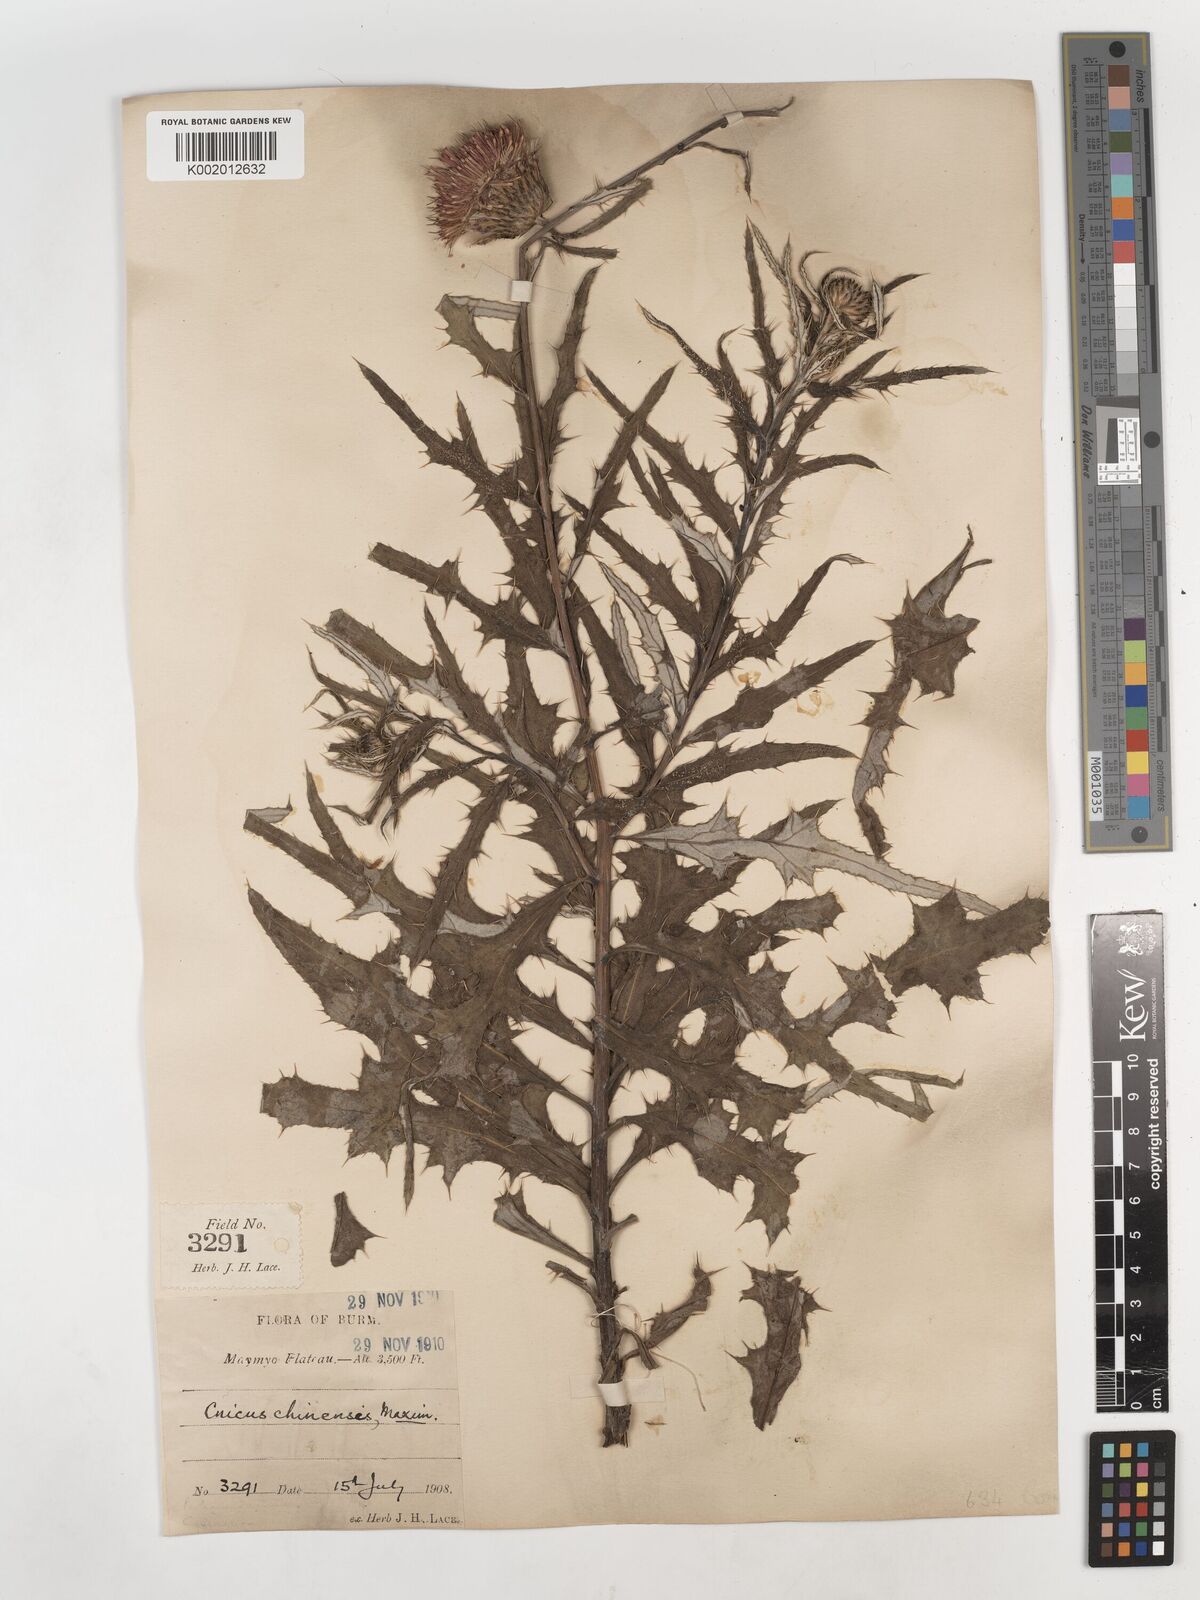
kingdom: Plantae
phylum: Tracheophyta
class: Magnoliopsida
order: Asterales
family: Asteraceae
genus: Cirsium
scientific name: Cirsium lineare
